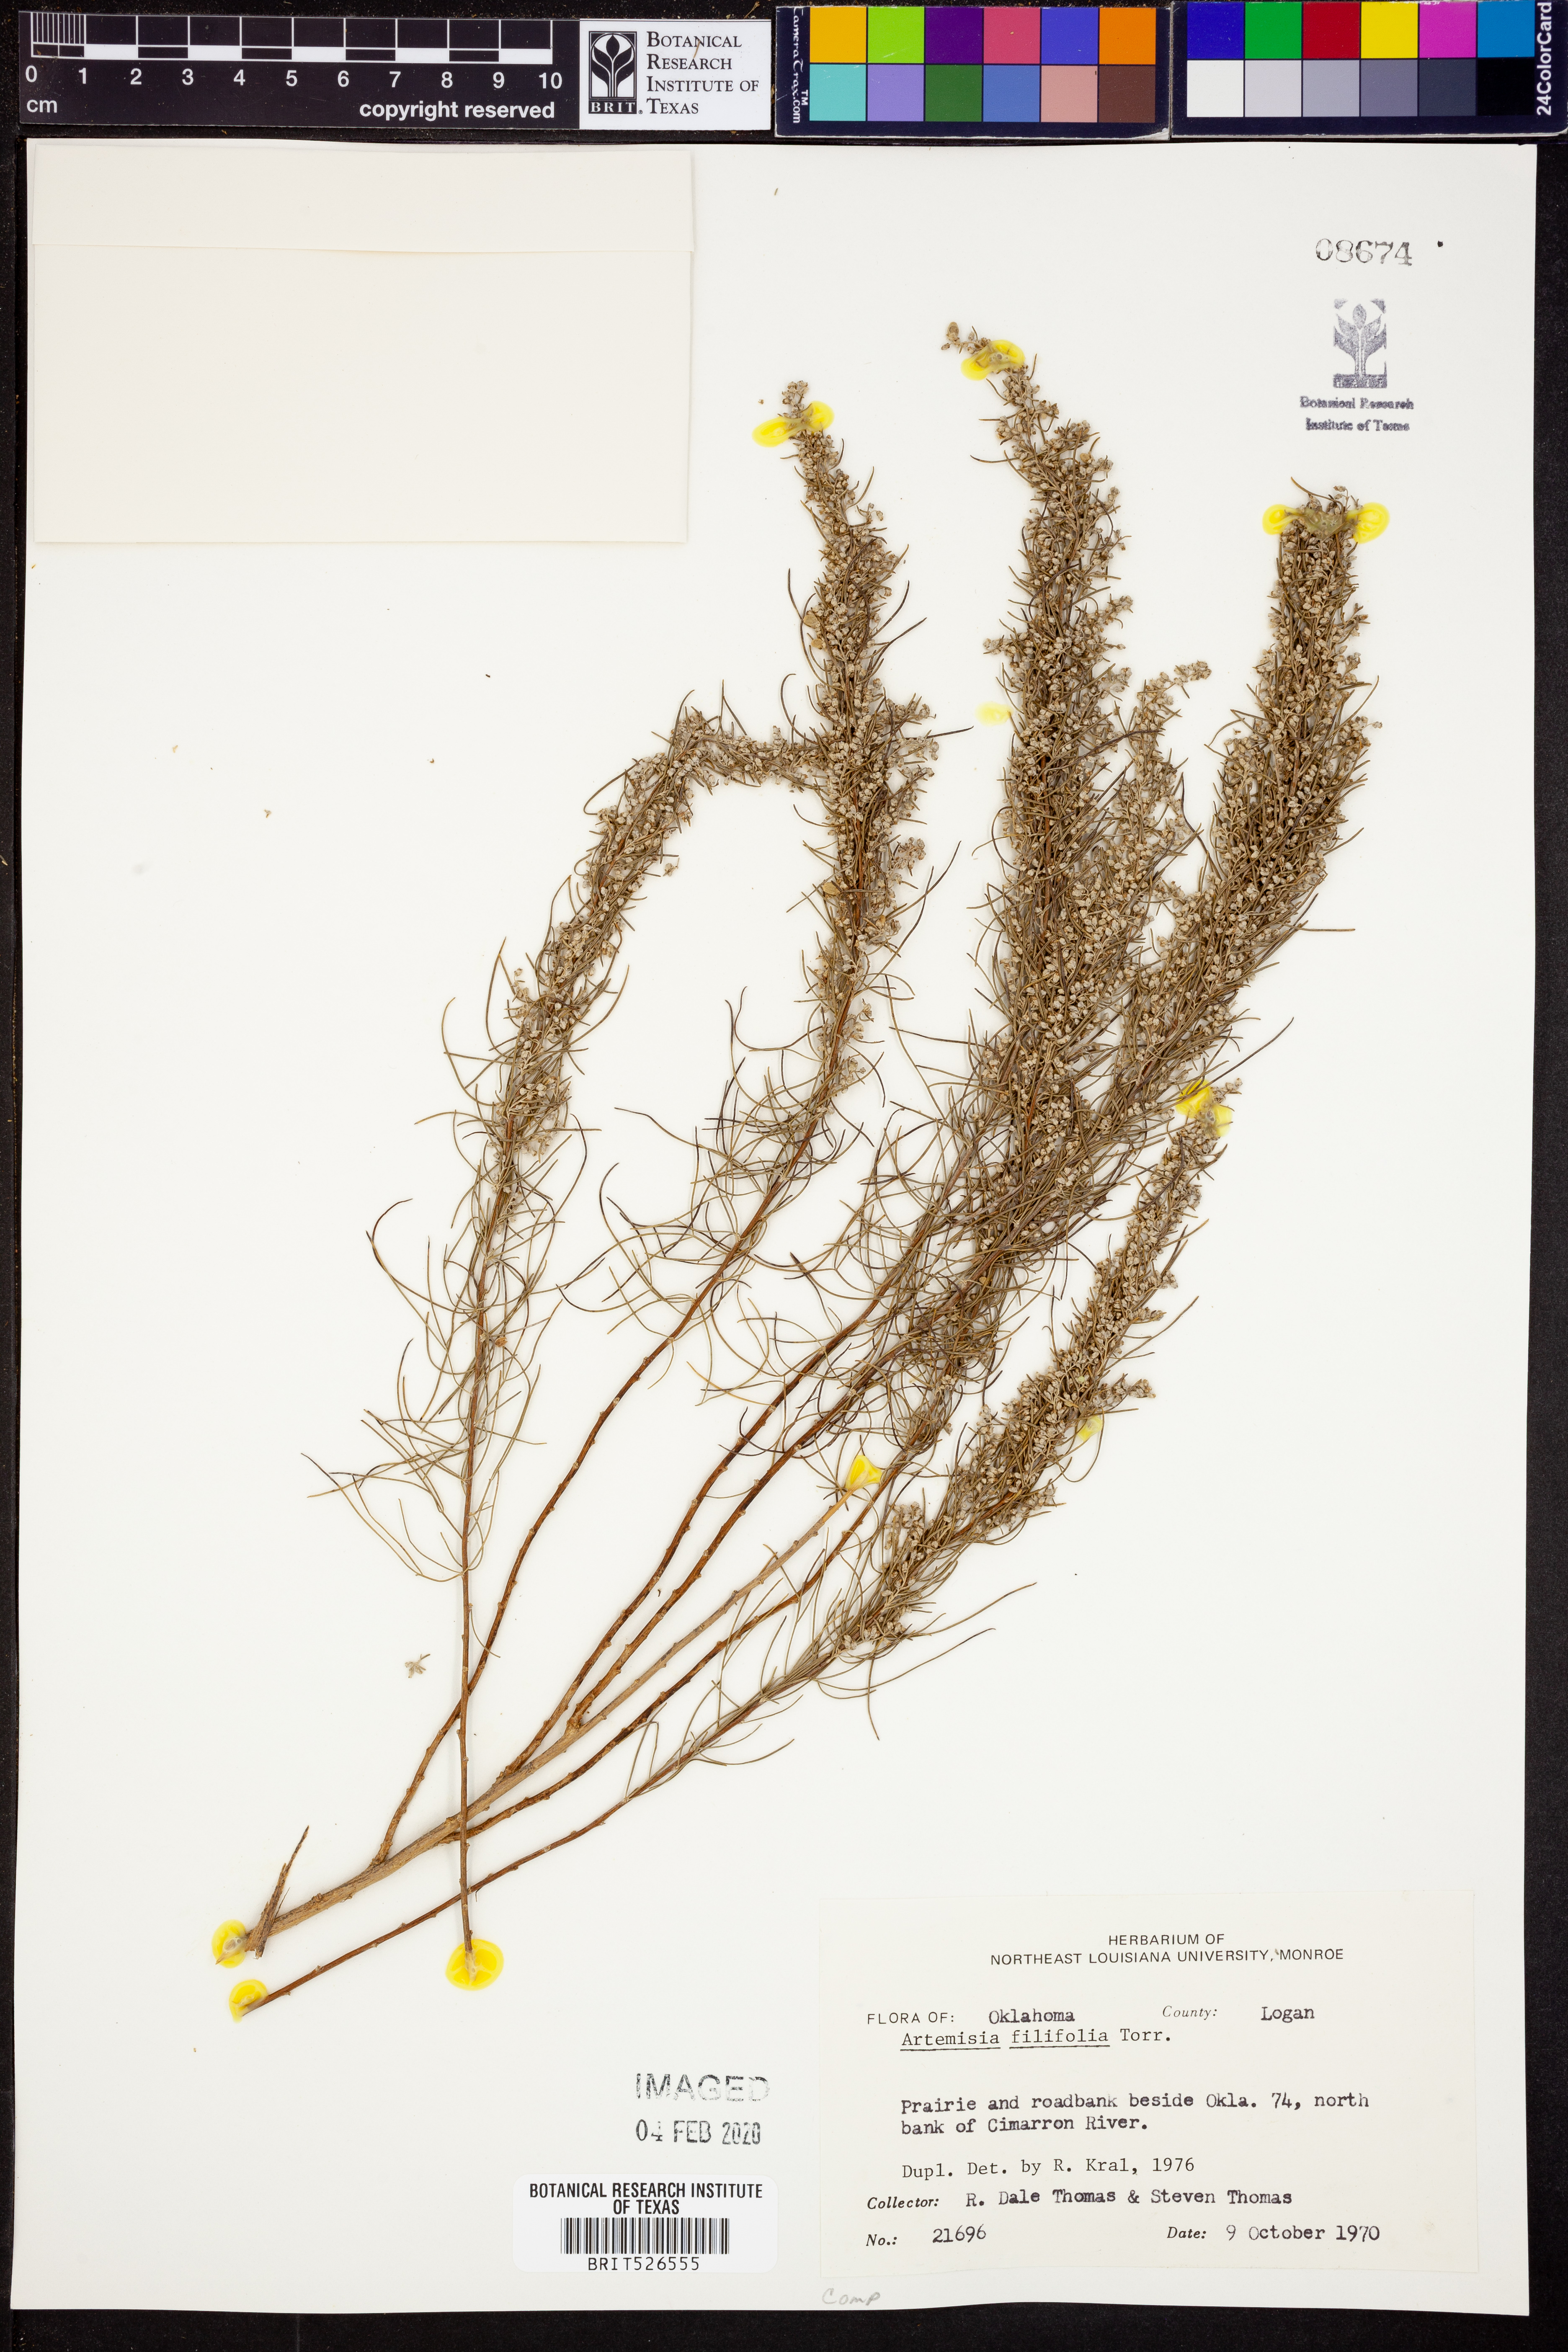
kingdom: Plantae
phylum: Tracheophyta
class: Magnoliopsida
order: Asterales
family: Asteraceae
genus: Artemisia
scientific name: Artemisia filifolia
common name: Sand-sage
